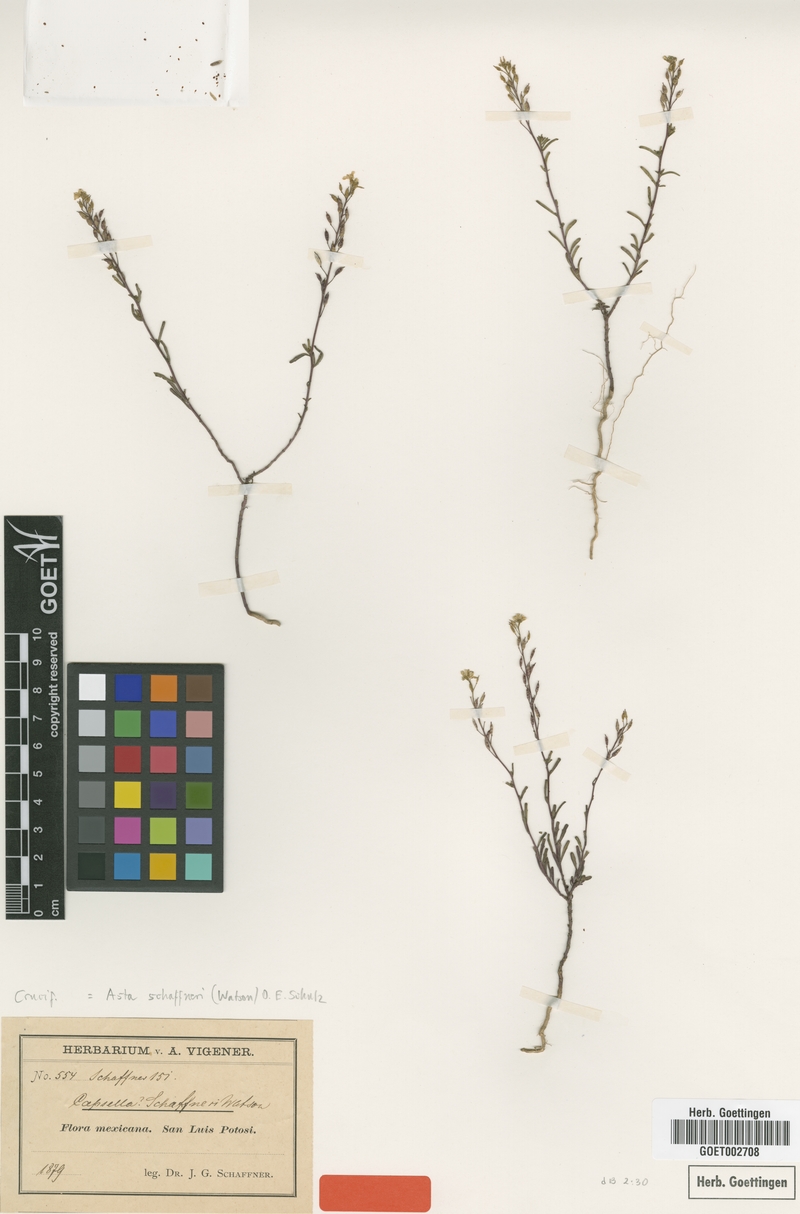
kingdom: Plantae
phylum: Tracheophyta
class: Magnoliopsida
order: Brassicales
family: Brassicaceae
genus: Asta
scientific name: Asta schaffneri
